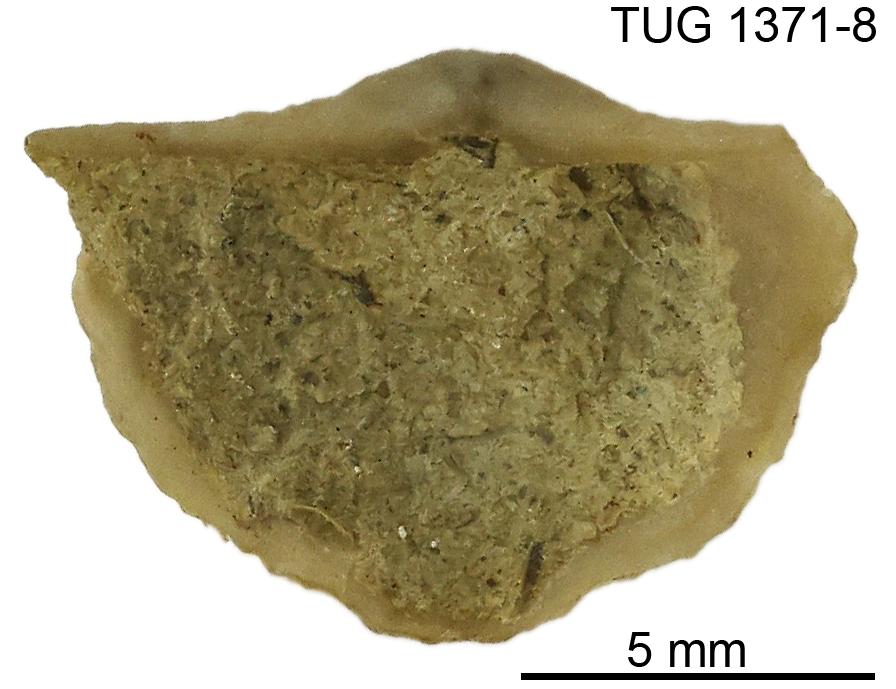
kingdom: Animalia
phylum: Brachiopoda
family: Sowerbyellidae
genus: Eochonetes
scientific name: Eochonetes
